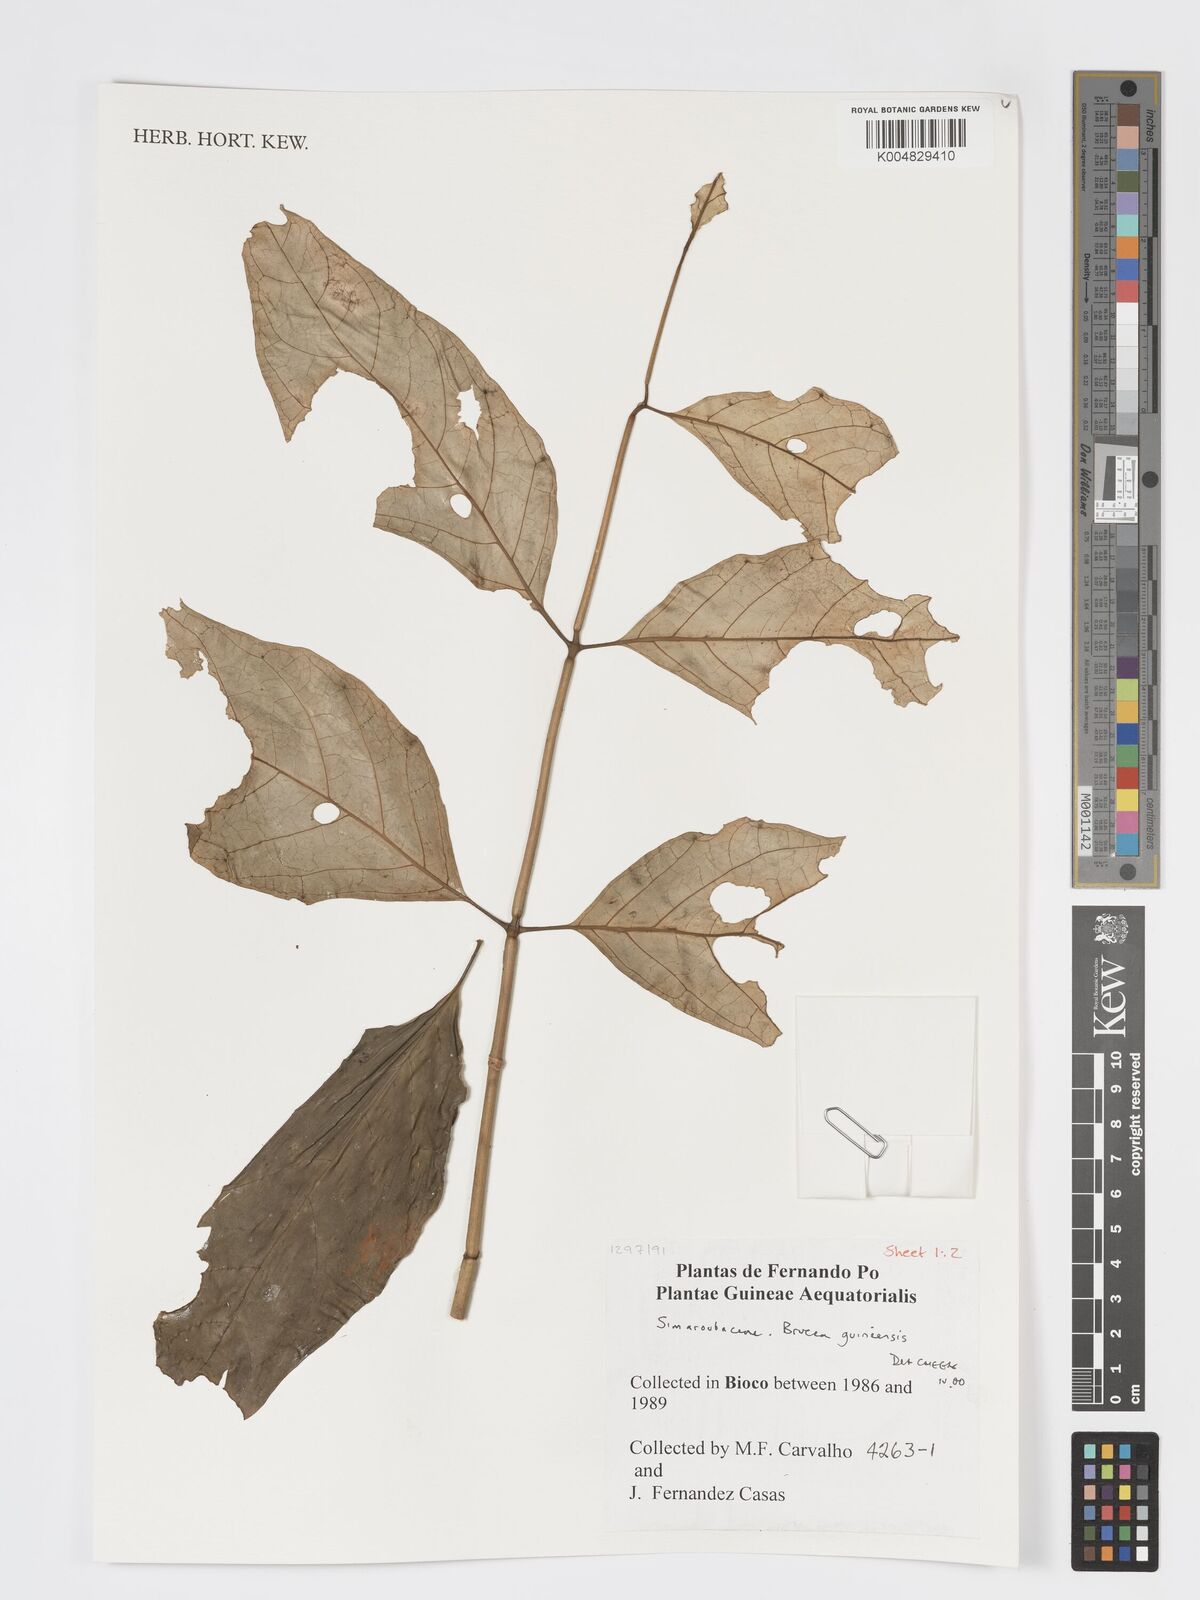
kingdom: Plantae
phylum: Tracheophyta
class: Magnoliopsida
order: Sapindales
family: Anacardiaceae
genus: Trichoscypha
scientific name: Trichoscypha smythei
